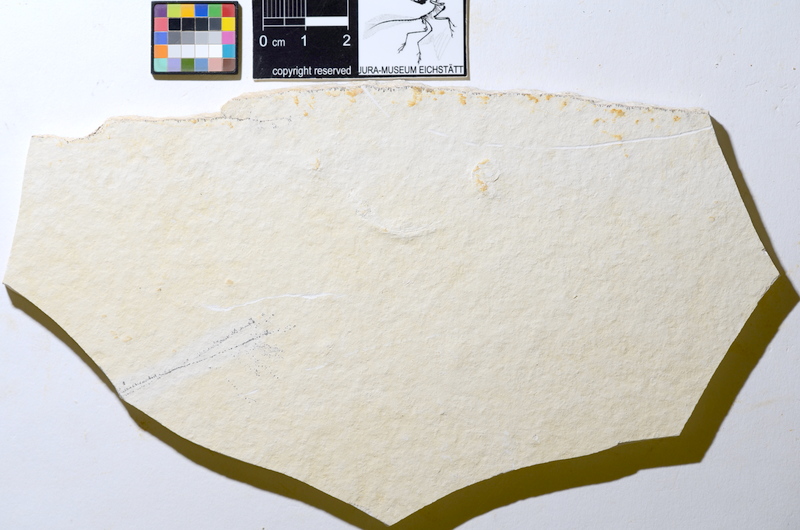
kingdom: Animalia
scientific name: Animalia
